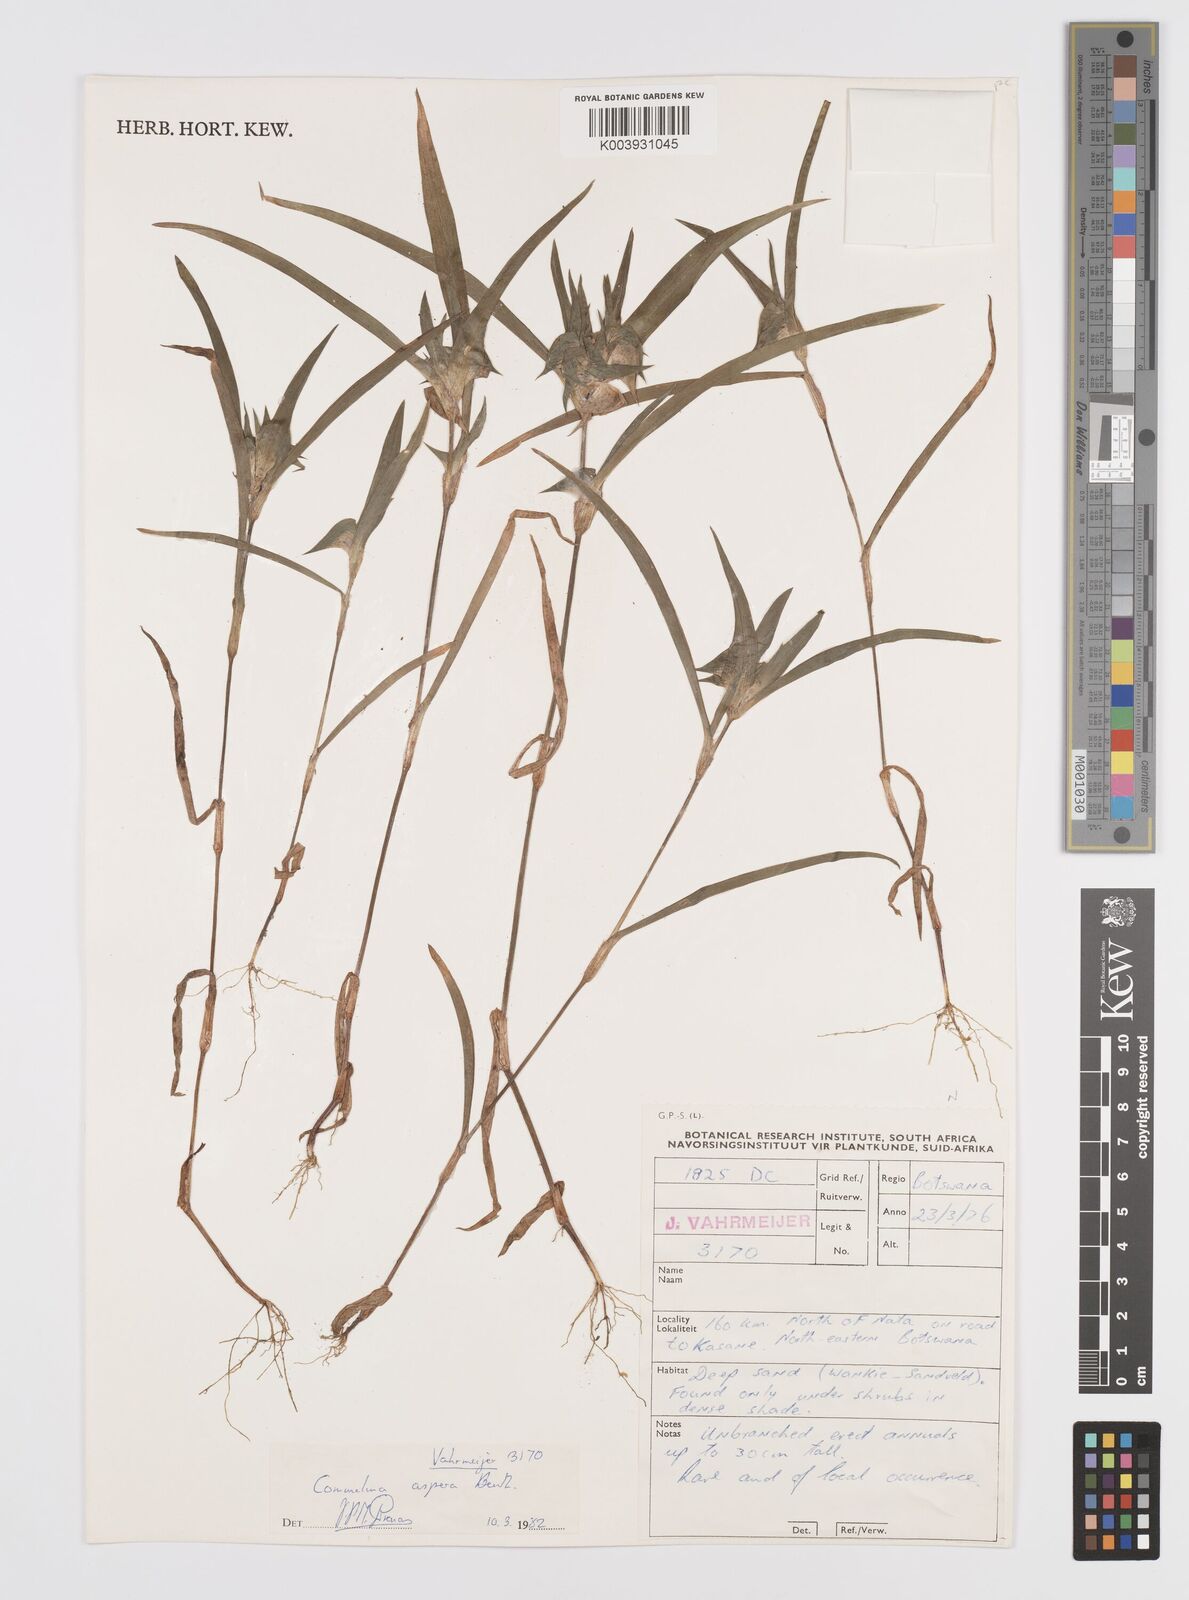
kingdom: Plantae
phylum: Tracheophyta
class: Liliopsida
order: Commelinales
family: Commelinaceae
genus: Commelina
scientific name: Commelina aspera
